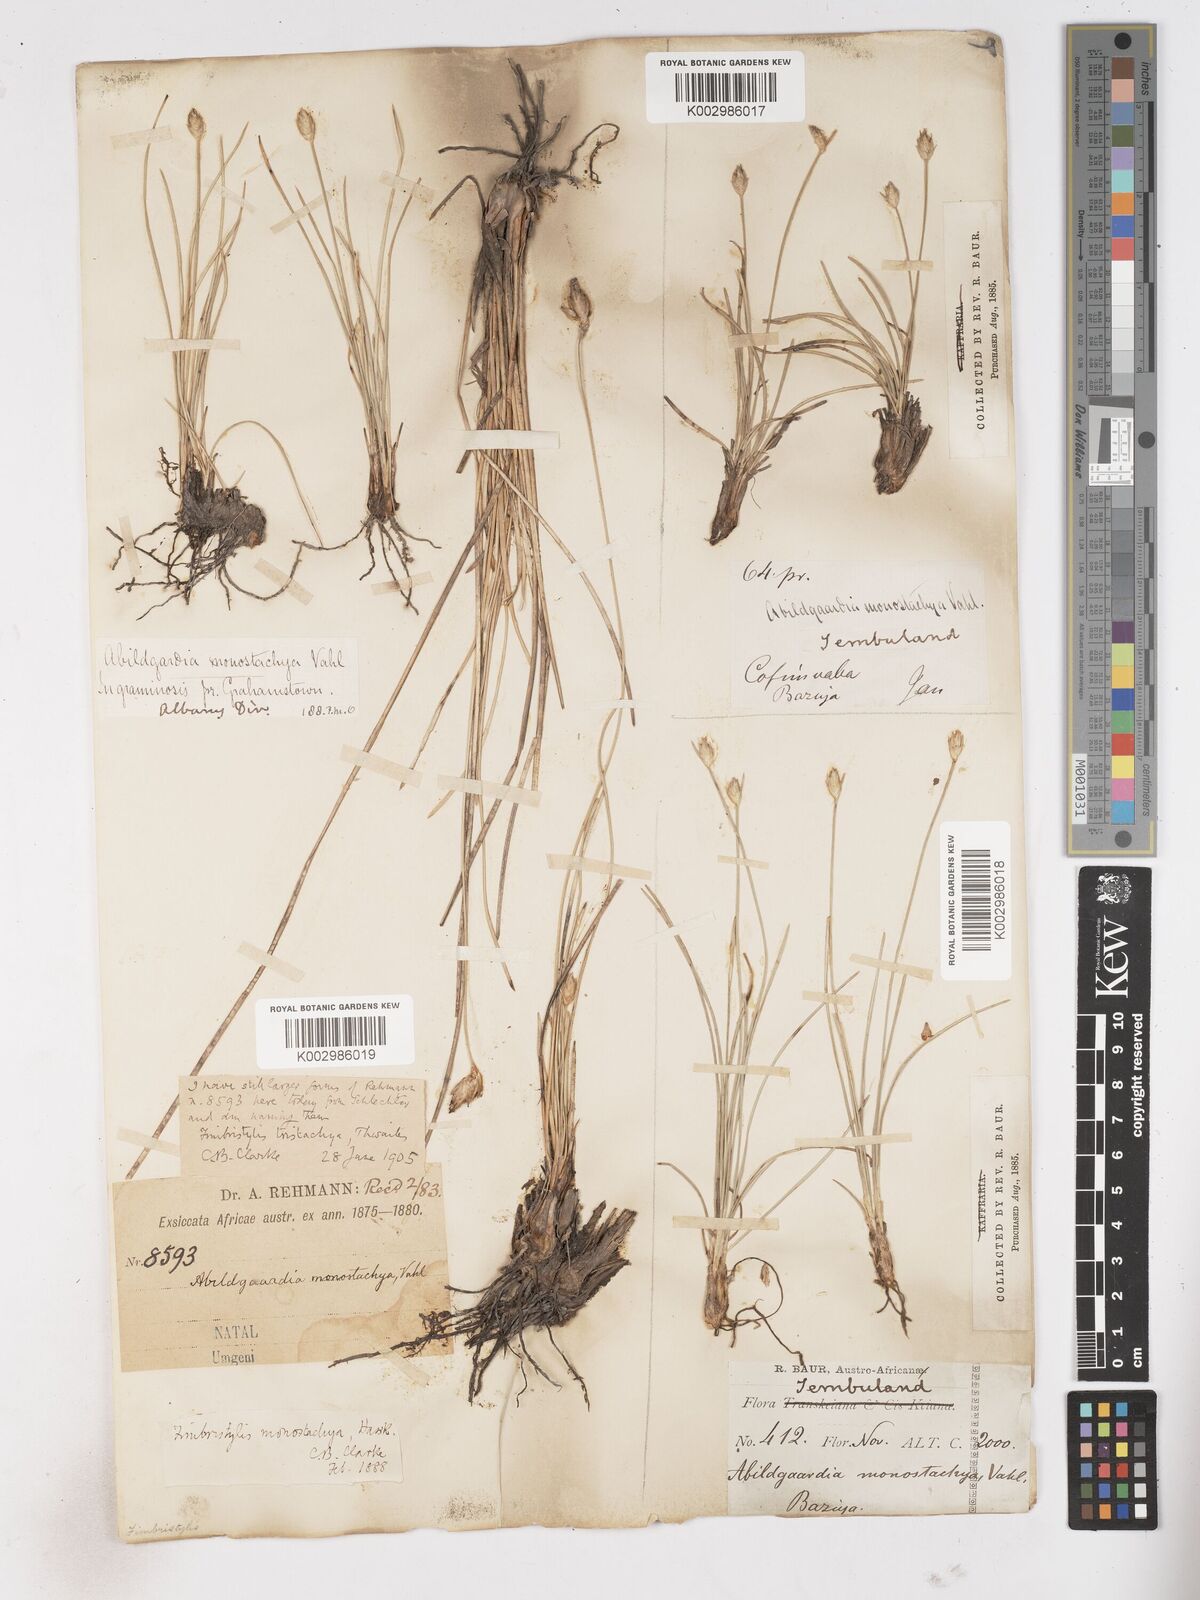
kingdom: Plantae
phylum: Tracheophyta
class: Liliopsida
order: Poales
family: Cyperaceae
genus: Abildgaardia
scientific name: Abildgaardia ovata
